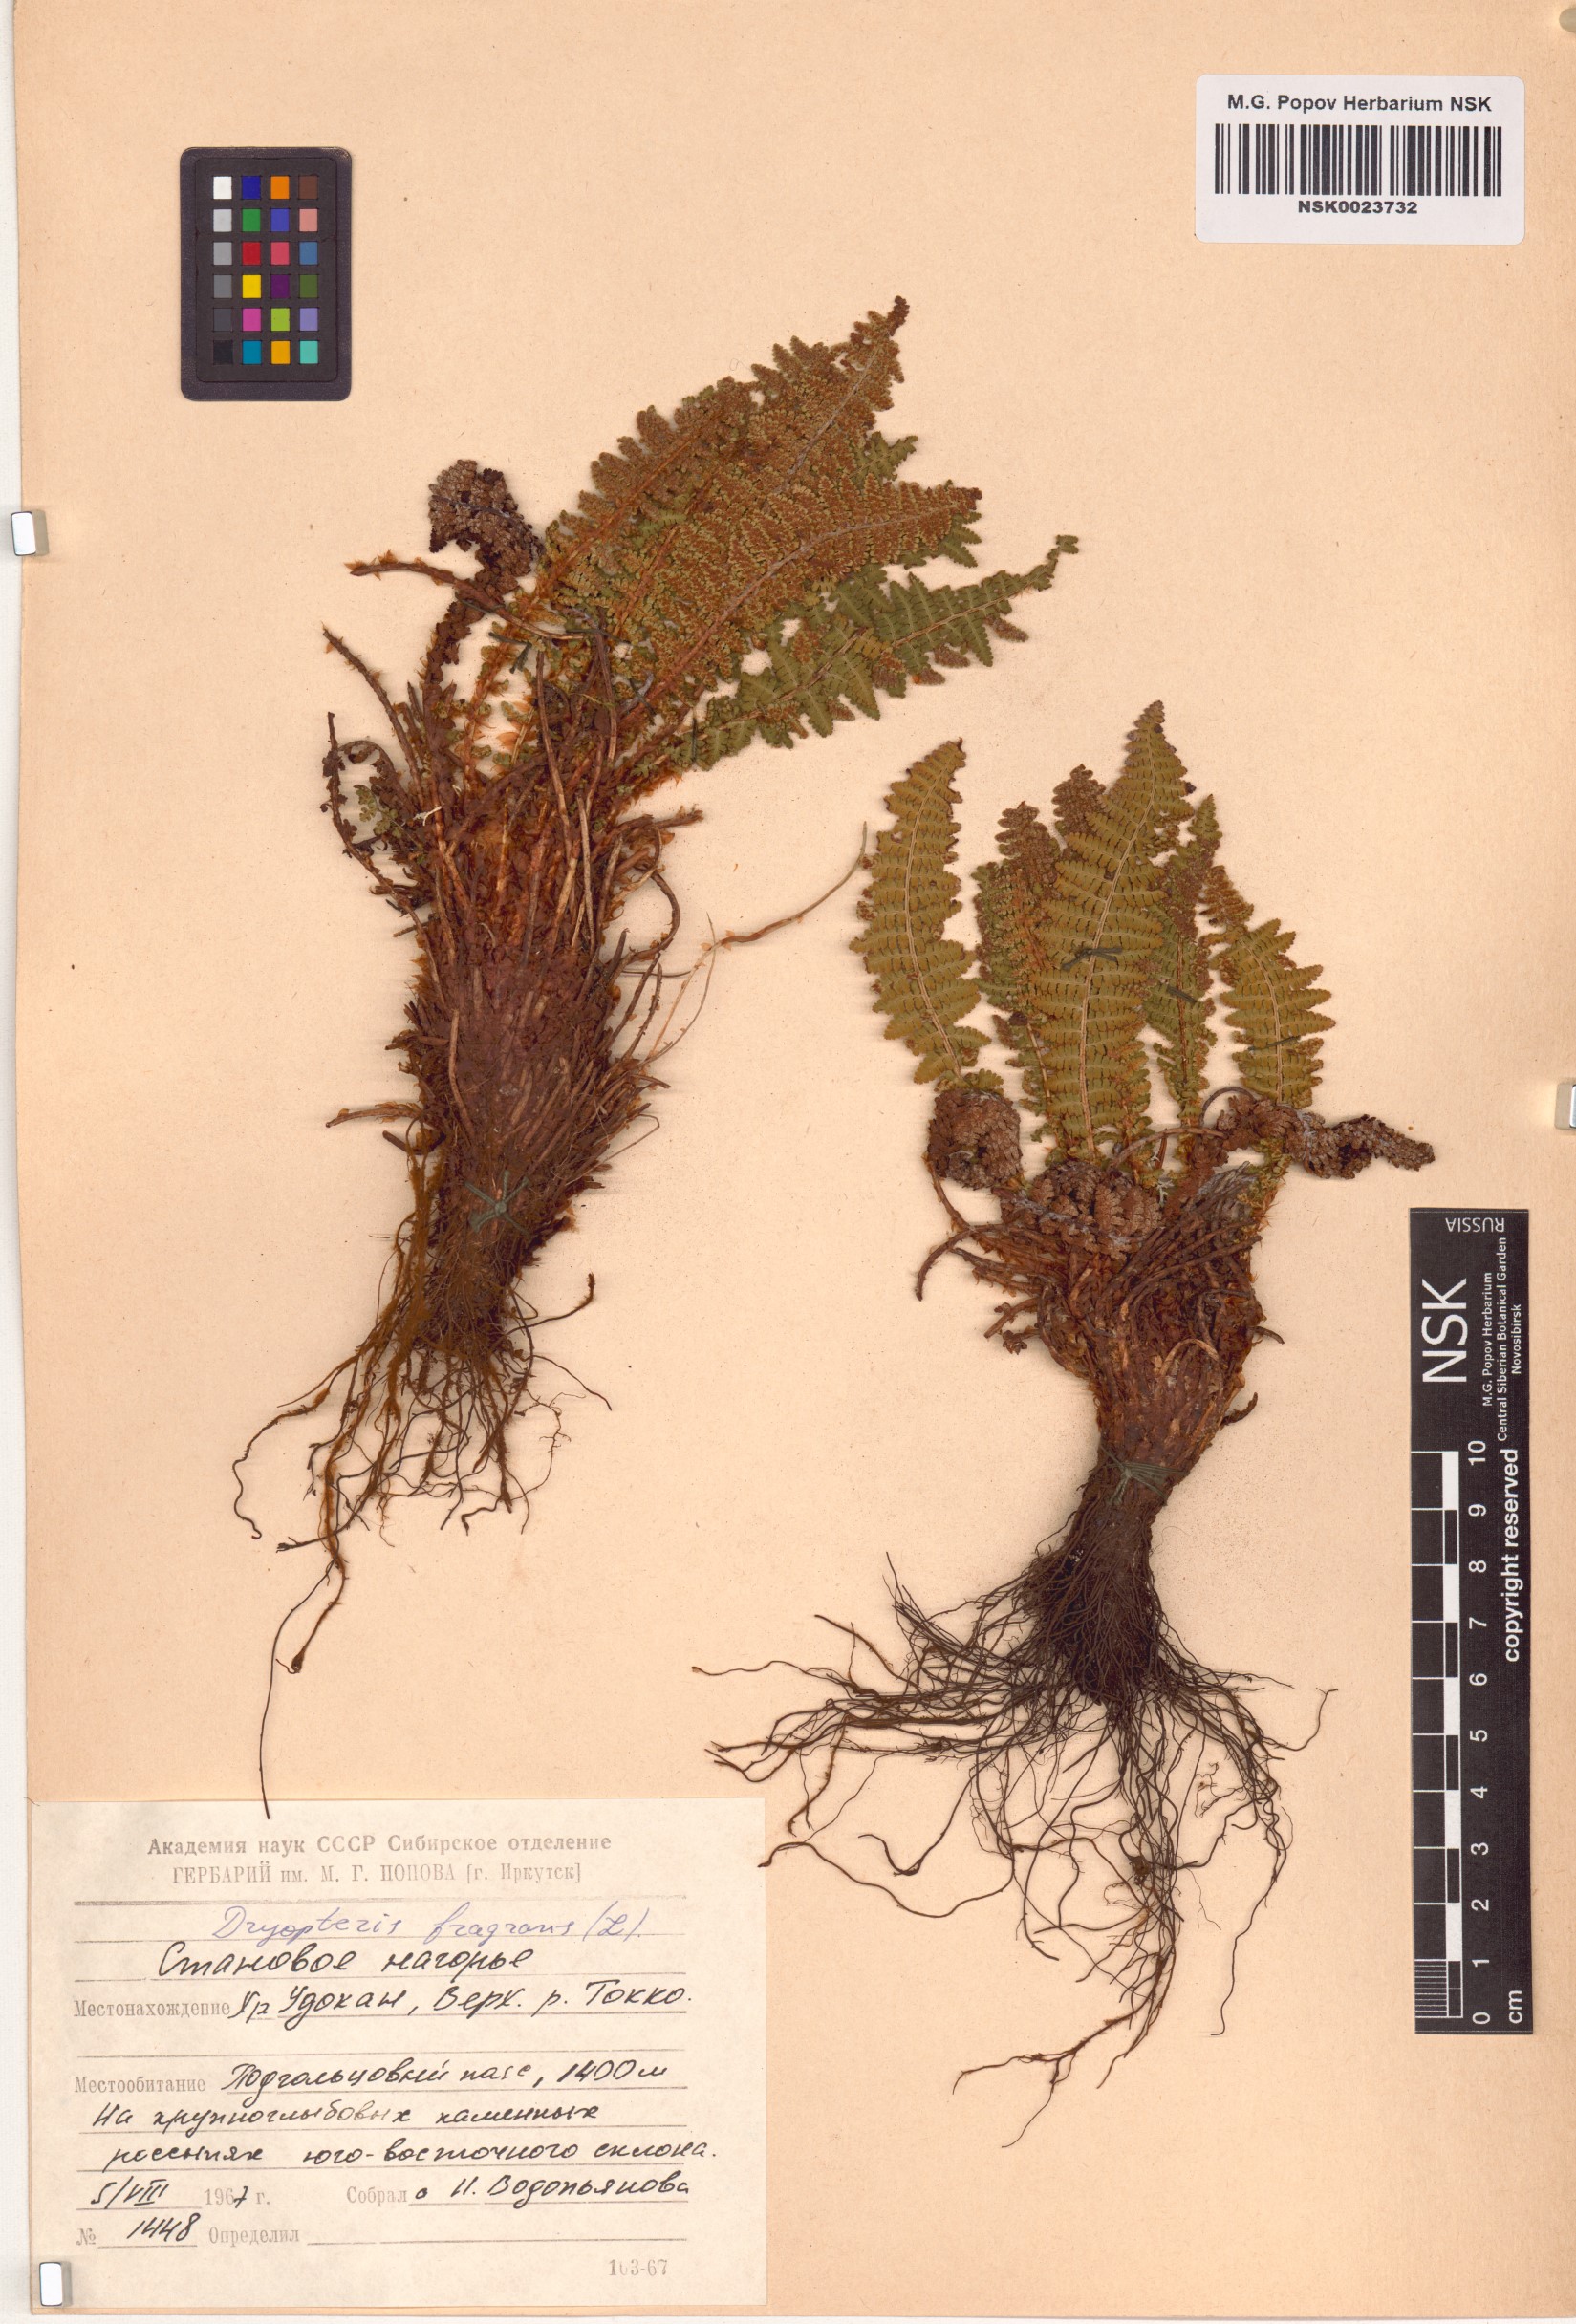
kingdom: Plantae
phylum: Tracheophyta
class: Polypodiopsida
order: Polypodiales
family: Dryopteridaceae
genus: Dryopteris
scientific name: Dryopteris fragrans
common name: Fragrant wood fern
